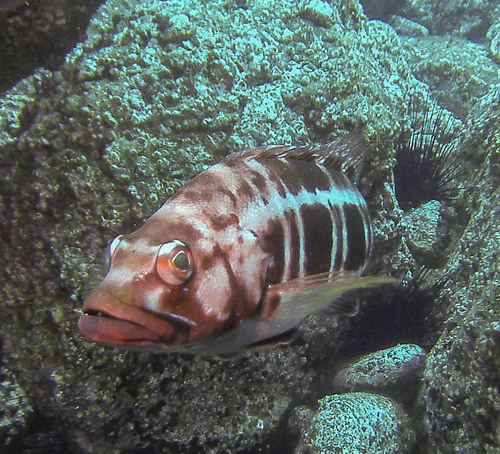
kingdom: Animalia
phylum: Chordata
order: Perciformes
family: Serranidae
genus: Serranus
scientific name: Serranus atricauda
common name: Blacktail comber
